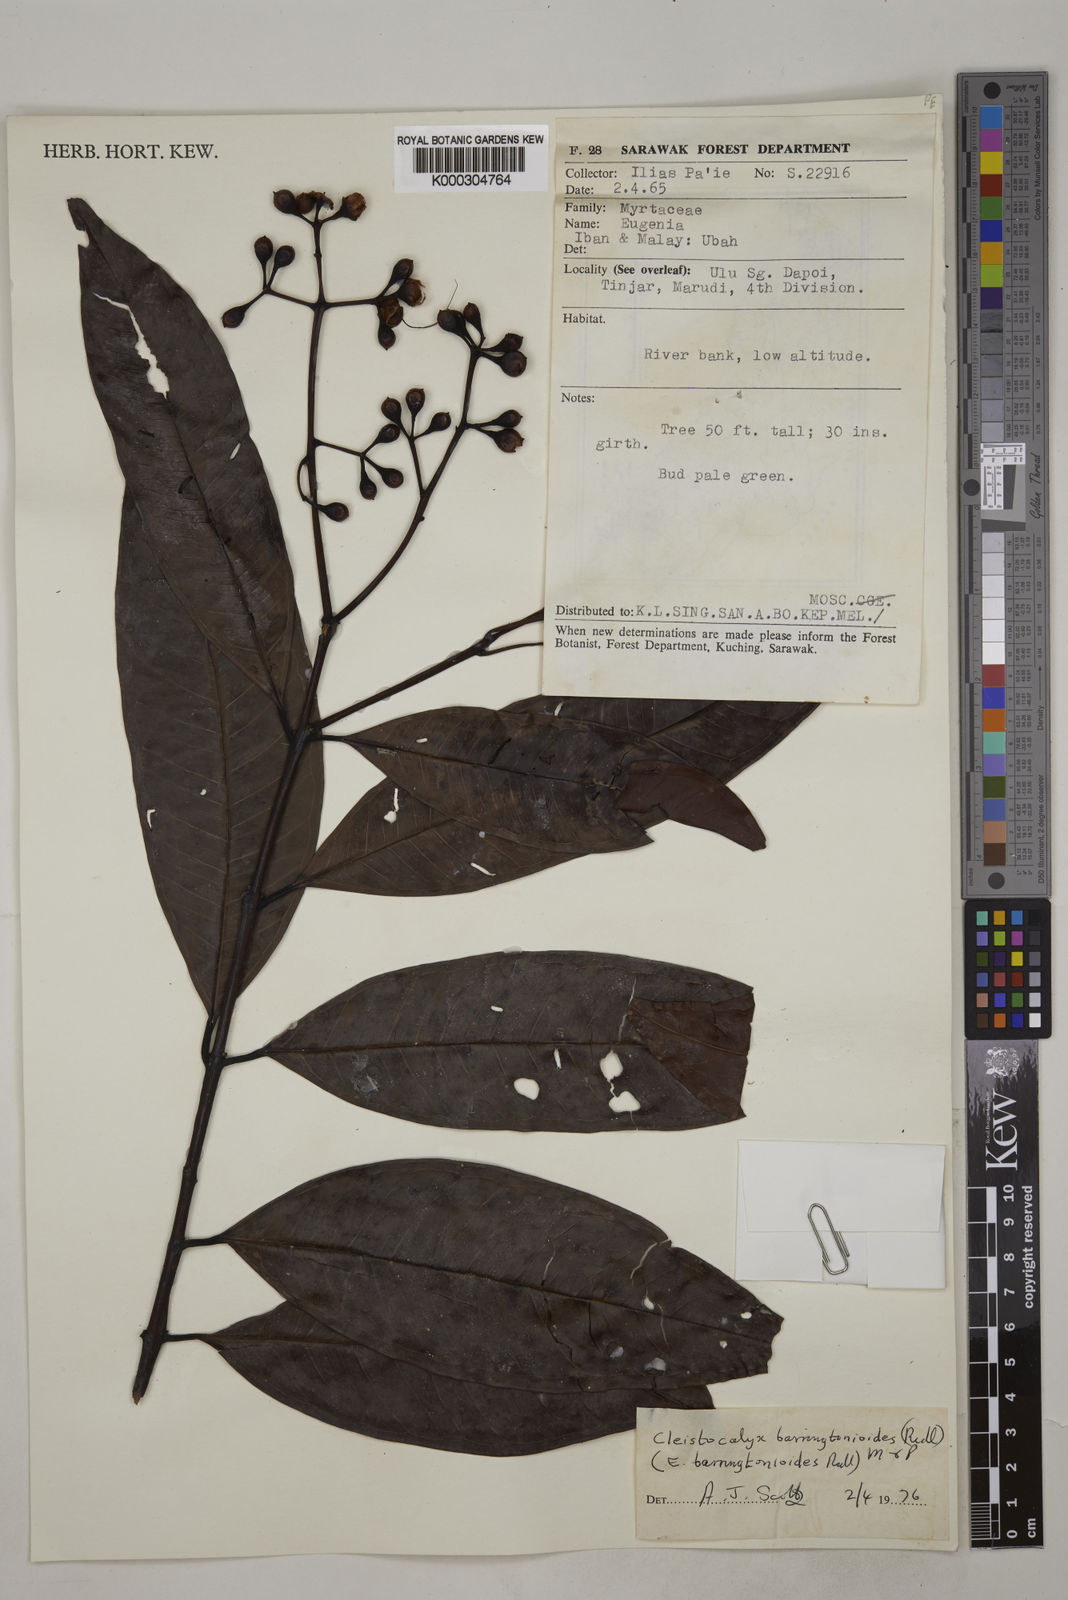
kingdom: Plantae
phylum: Tracheophyta
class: Magnoliopsida
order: Myrtales
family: Myrtaceae
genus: Syzygium
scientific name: Syzygium
